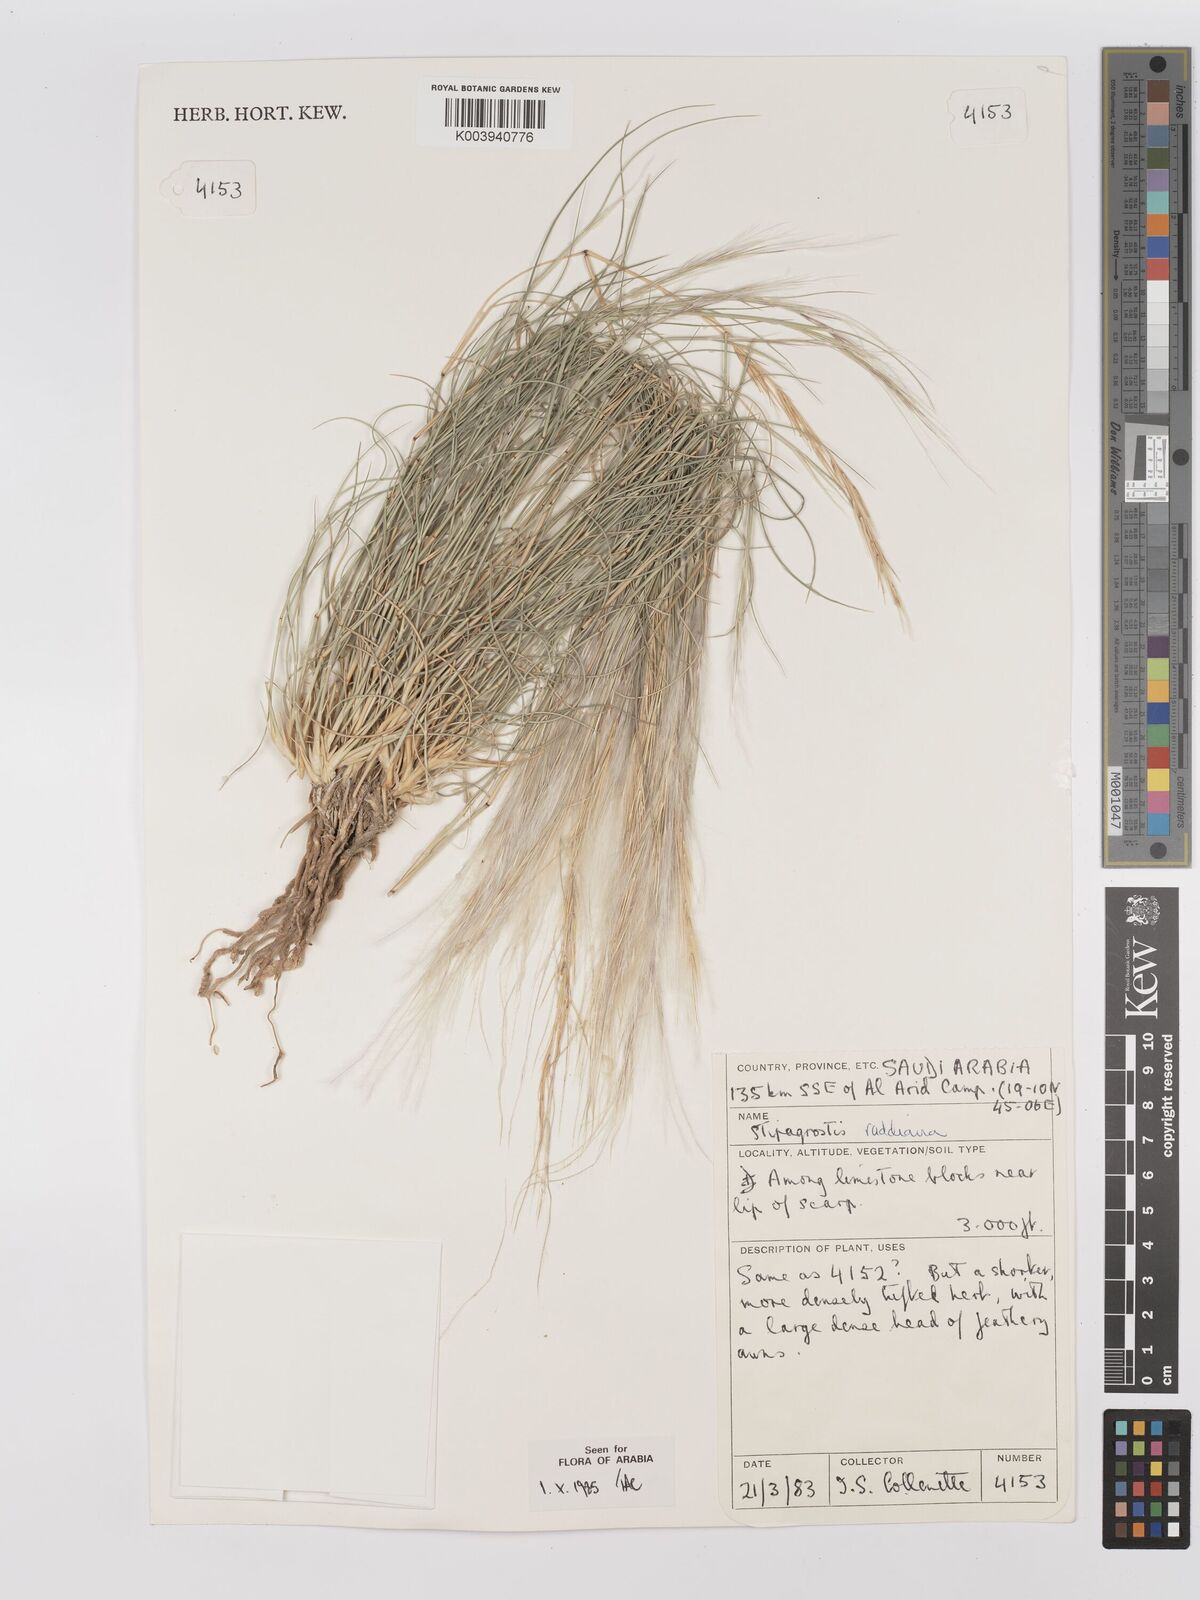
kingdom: Plantae
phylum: Tracheophyta
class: Liliopsida
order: Poales
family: Poaceae
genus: Stipagrostis
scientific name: Stipagrostis raddiana
